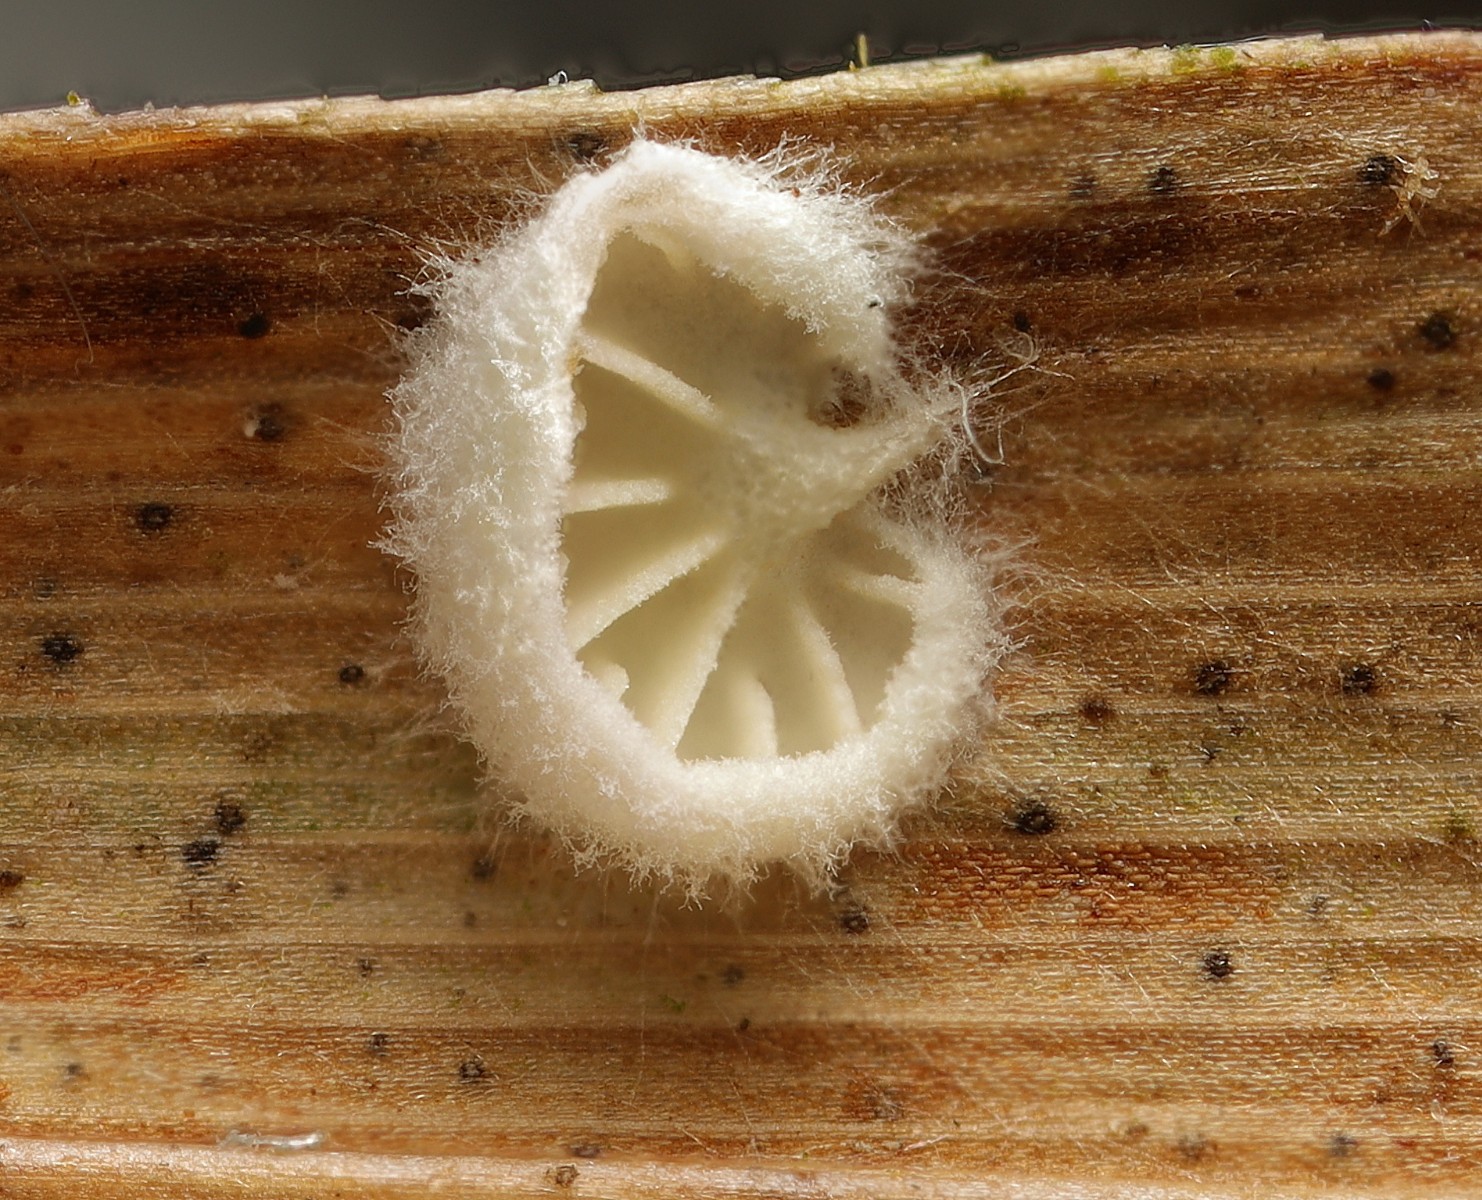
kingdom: Fungi
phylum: Basidiomycota
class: Agaricomycetes
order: Agaricales
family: Entolomataceae
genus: Clitopilus
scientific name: Clitopilus hobsonii
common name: Miller's oysterling
